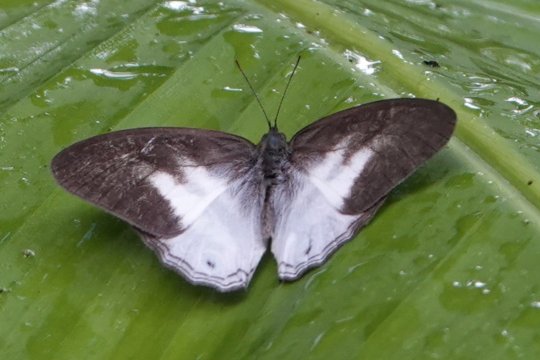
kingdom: Animalia
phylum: Arthropoda
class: Insecta
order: Lepidoptera
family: Nymphalidae
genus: Pareuptychia
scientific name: Pareuptychia metaleuca
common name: White-banded Satyr
